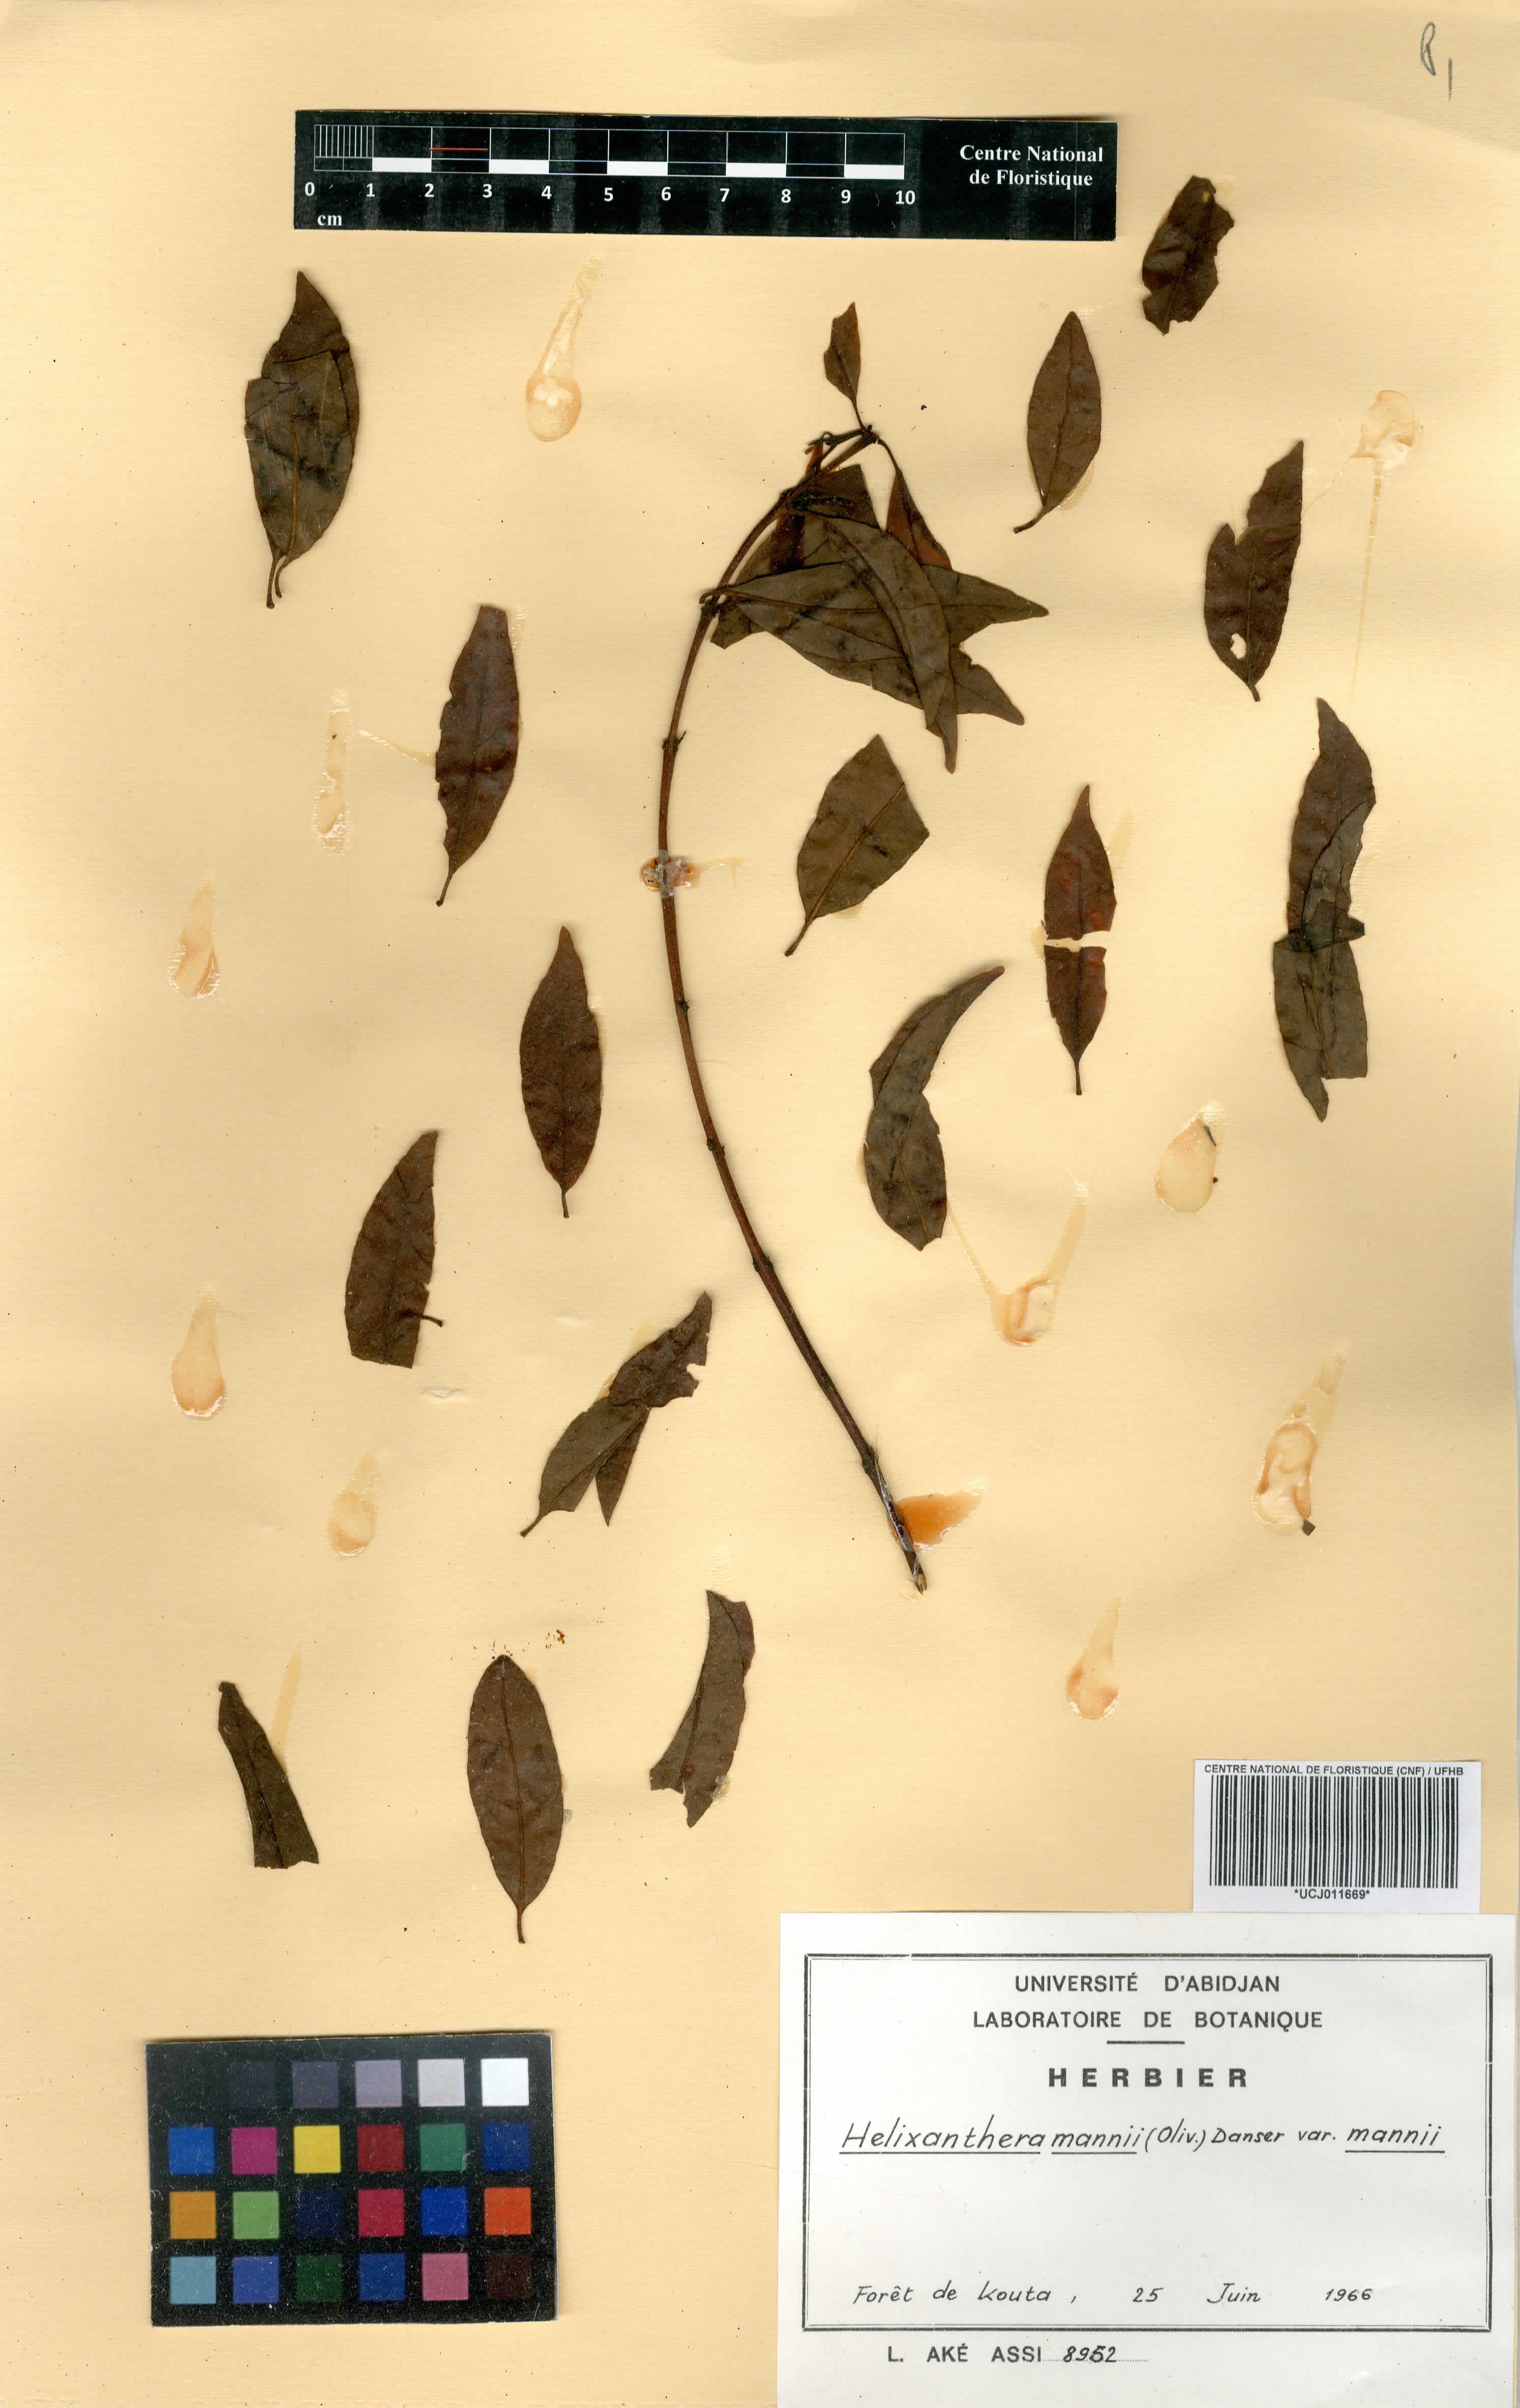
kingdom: Plantae
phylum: Tracheophyta
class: Magnoliopsida
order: Santalales
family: Loranthaceae
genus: Helixanthera
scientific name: Helixanthera mannii
